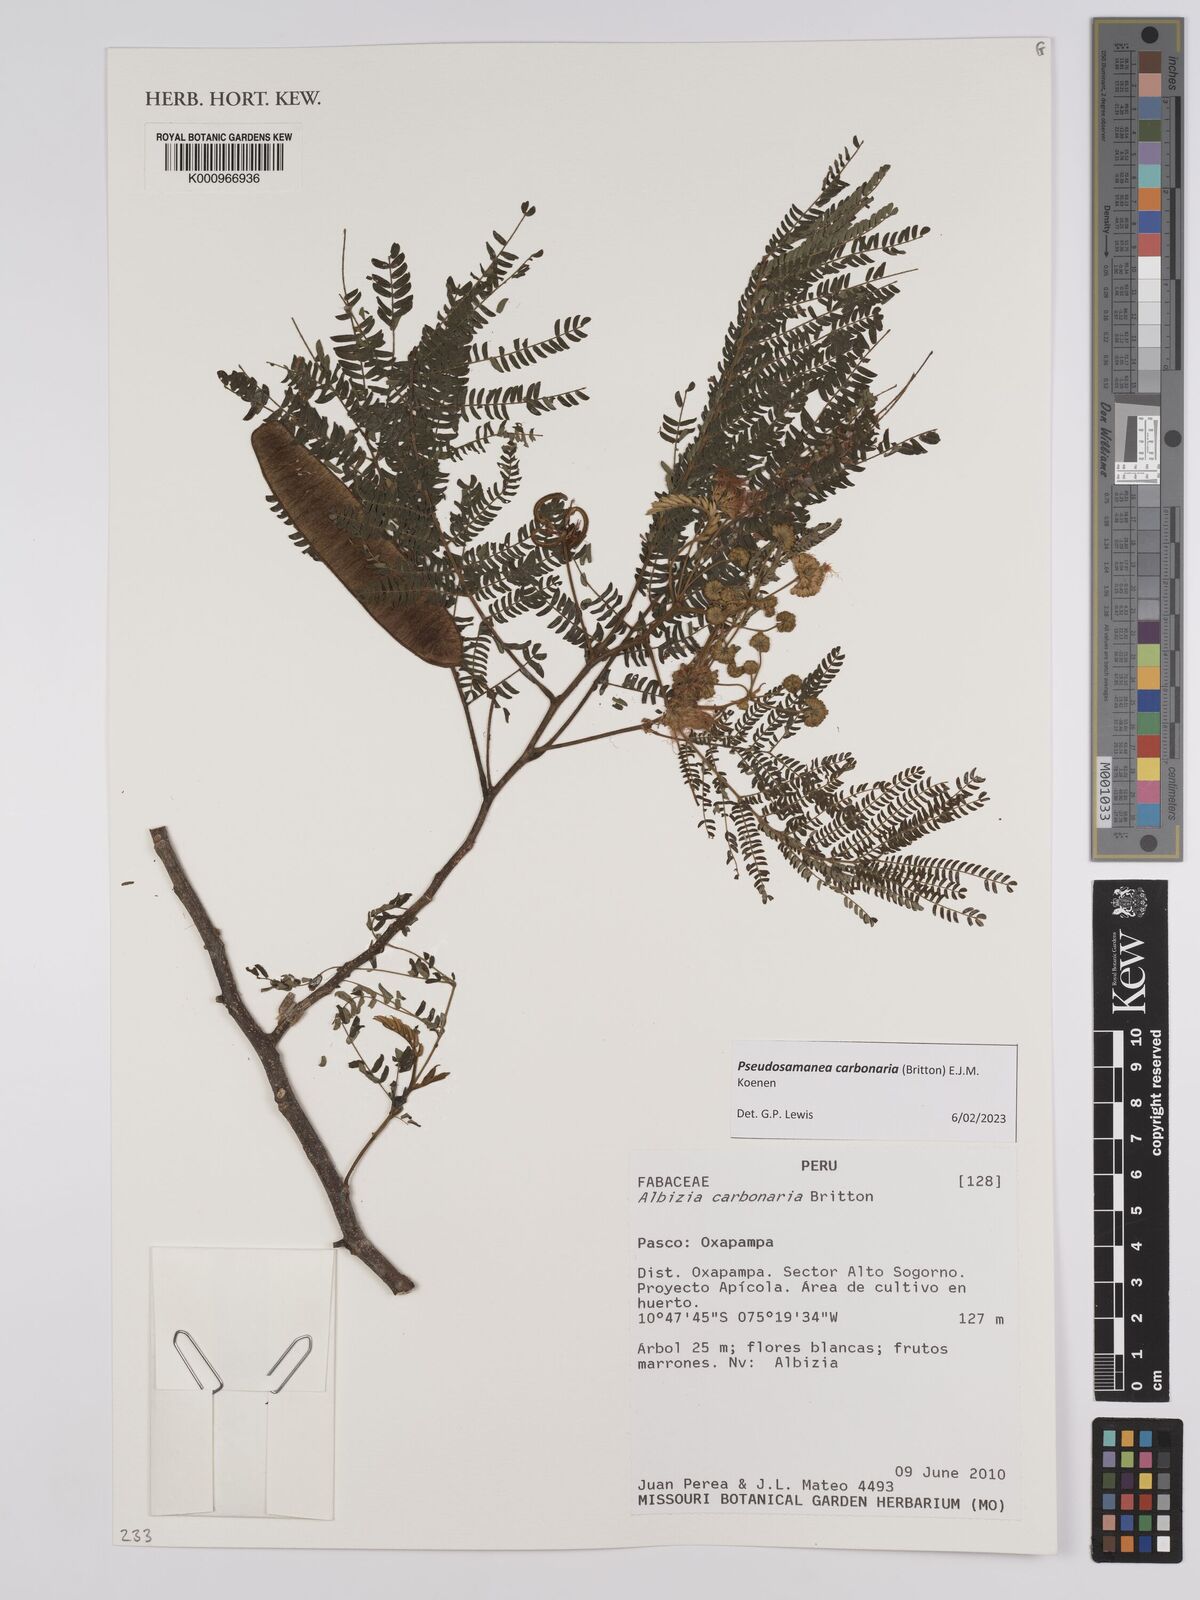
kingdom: Plantae
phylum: Tracheophyta
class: Magnoliopsida
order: Fabales
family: Fabaceae
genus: Albizia
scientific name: Albizia carbonaria
